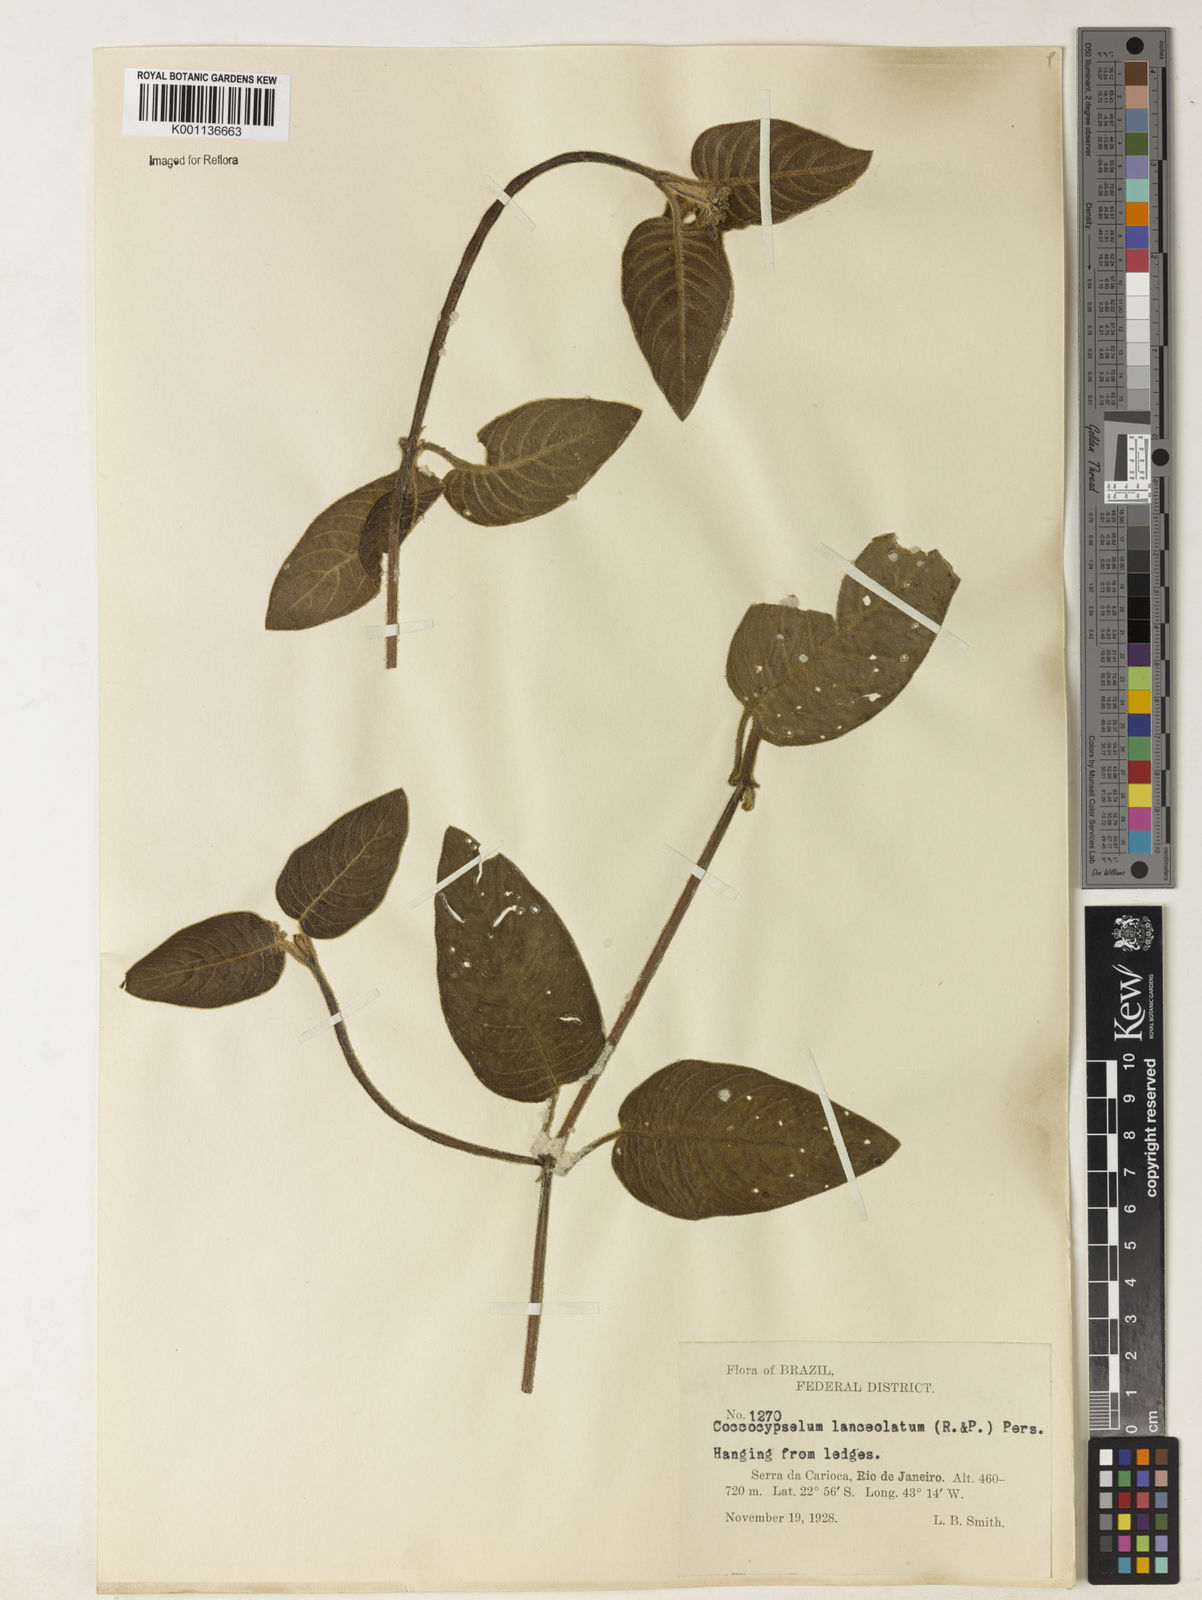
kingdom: Plantae
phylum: Tracheophyta
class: Magnoliopsida
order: Gentianales
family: Rubiaceae
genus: Coccocypselum
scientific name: Coccocypselum lanceolatum
